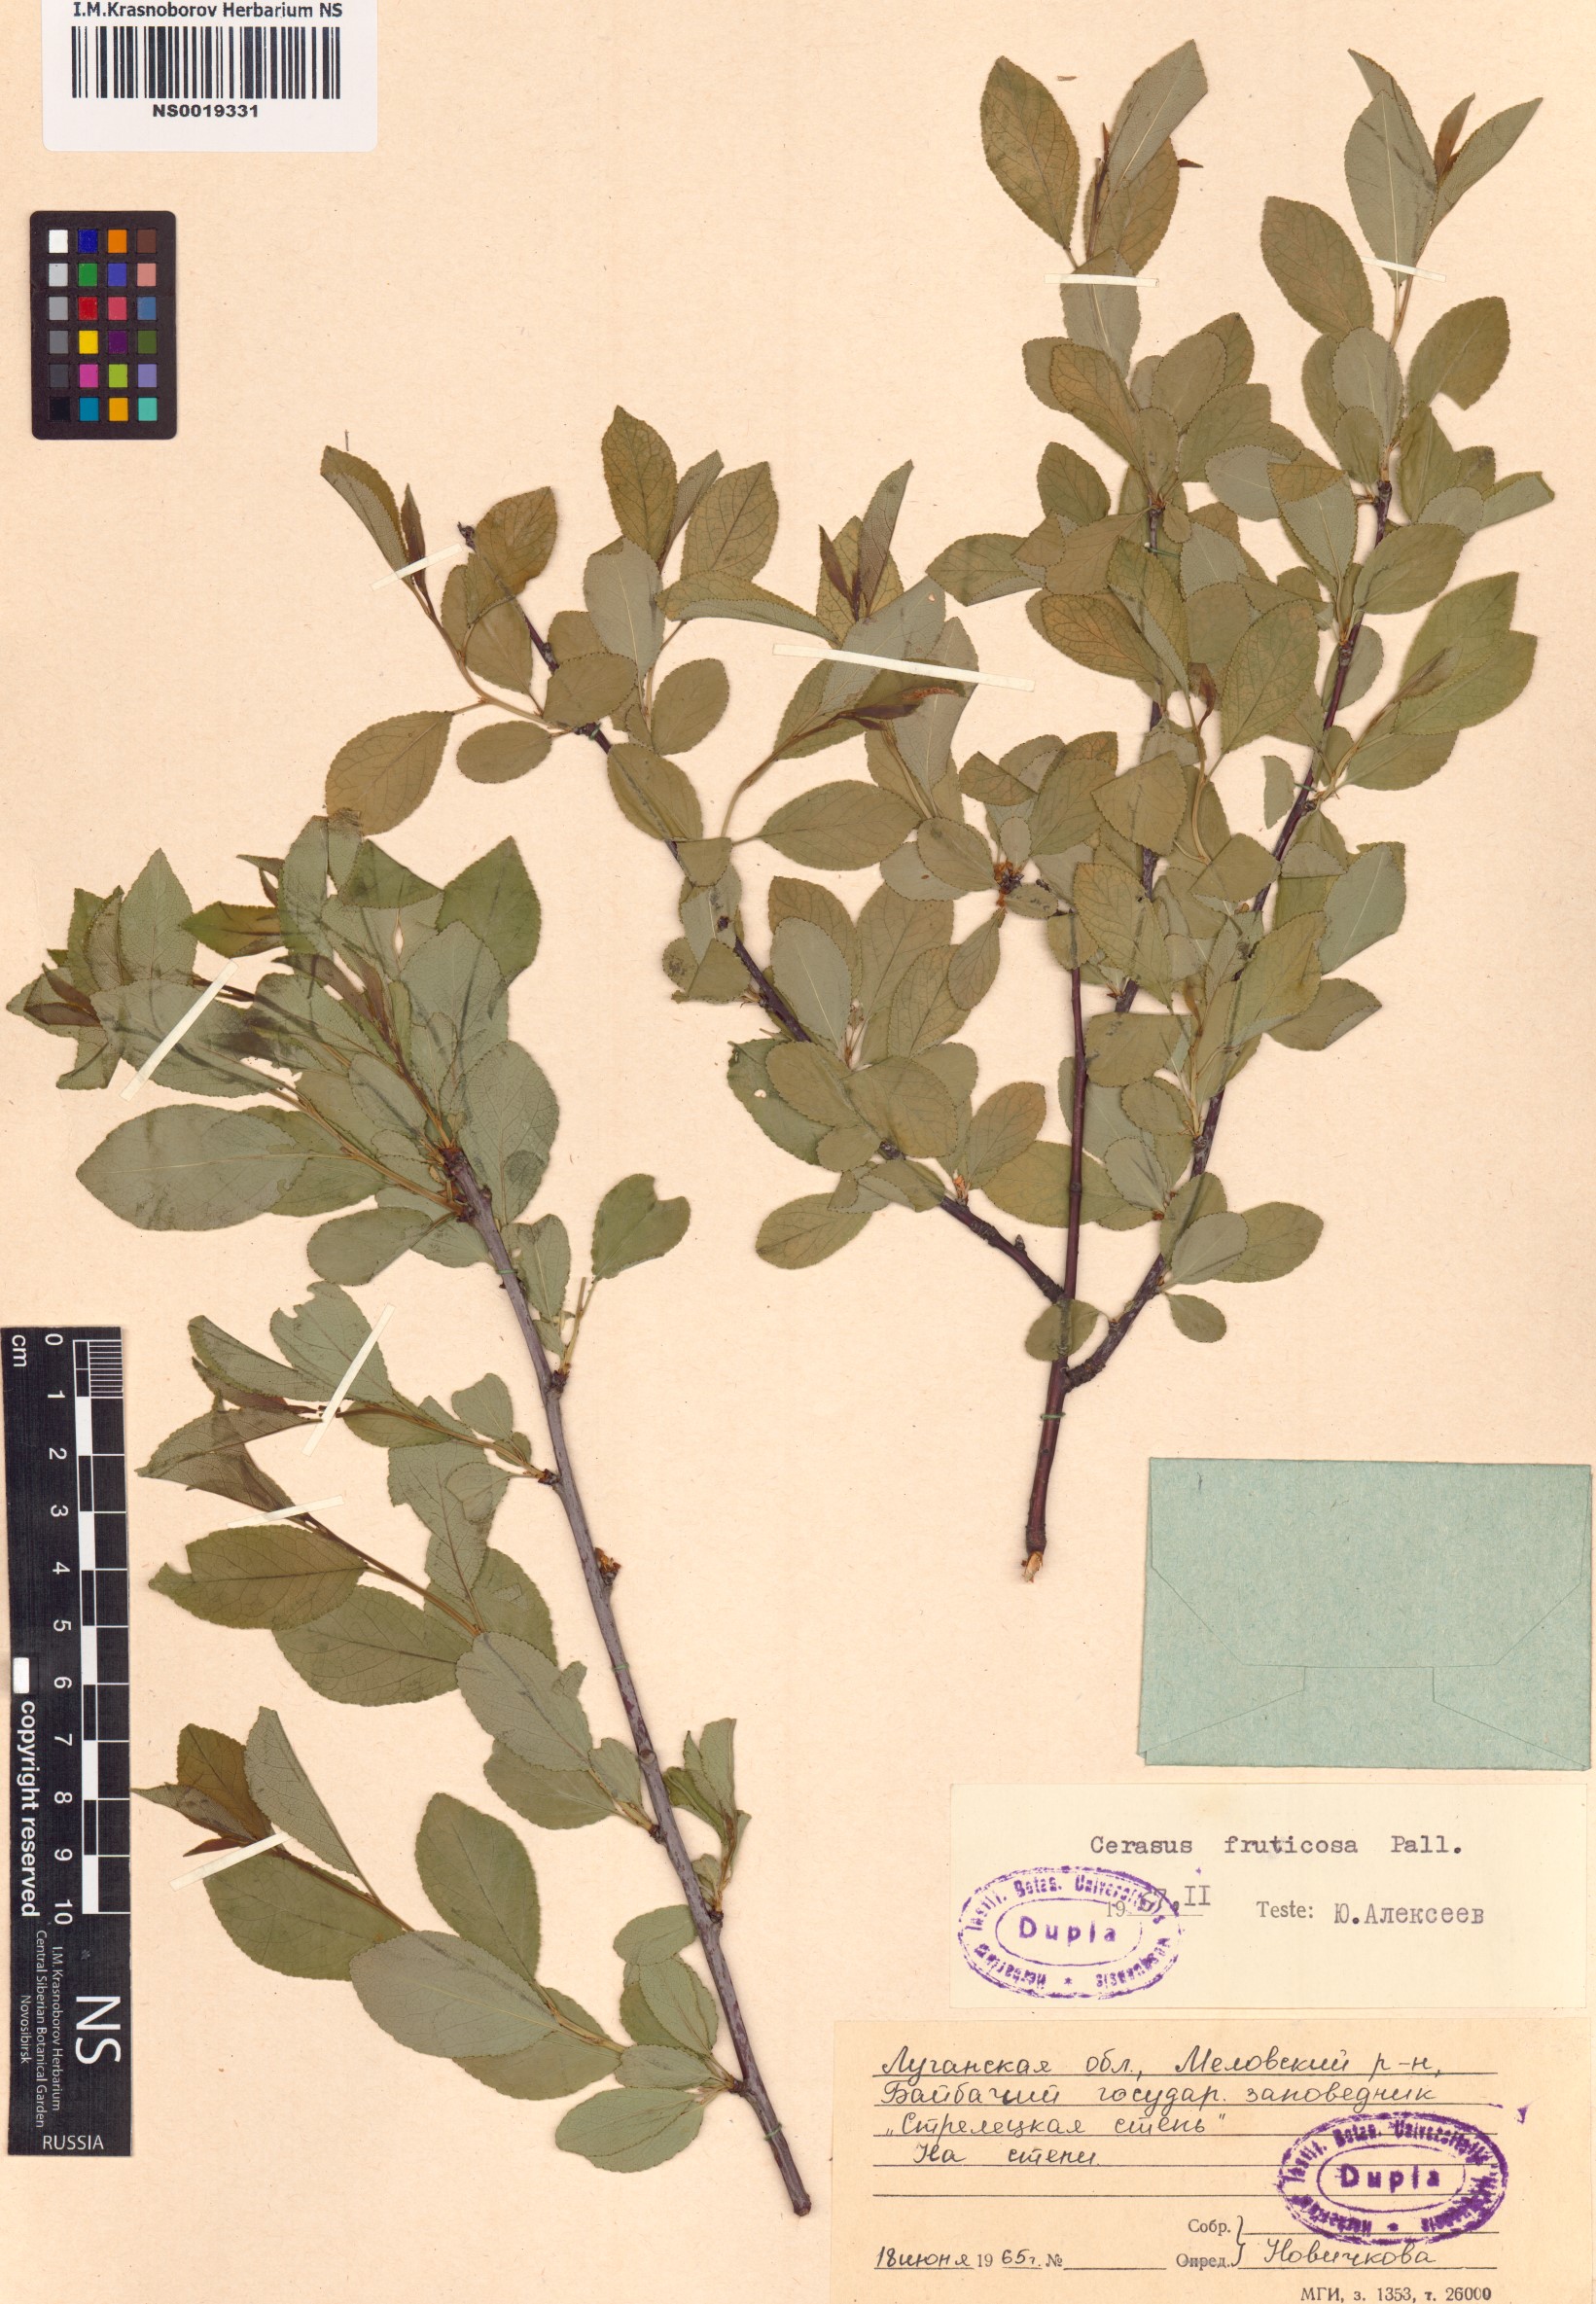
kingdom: Plantae
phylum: Tracheophyta
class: Magnoliopsida
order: Rosales
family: Rosaceae
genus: Prunus
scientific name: Prunus fruticosa
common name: European dwarf cherry
